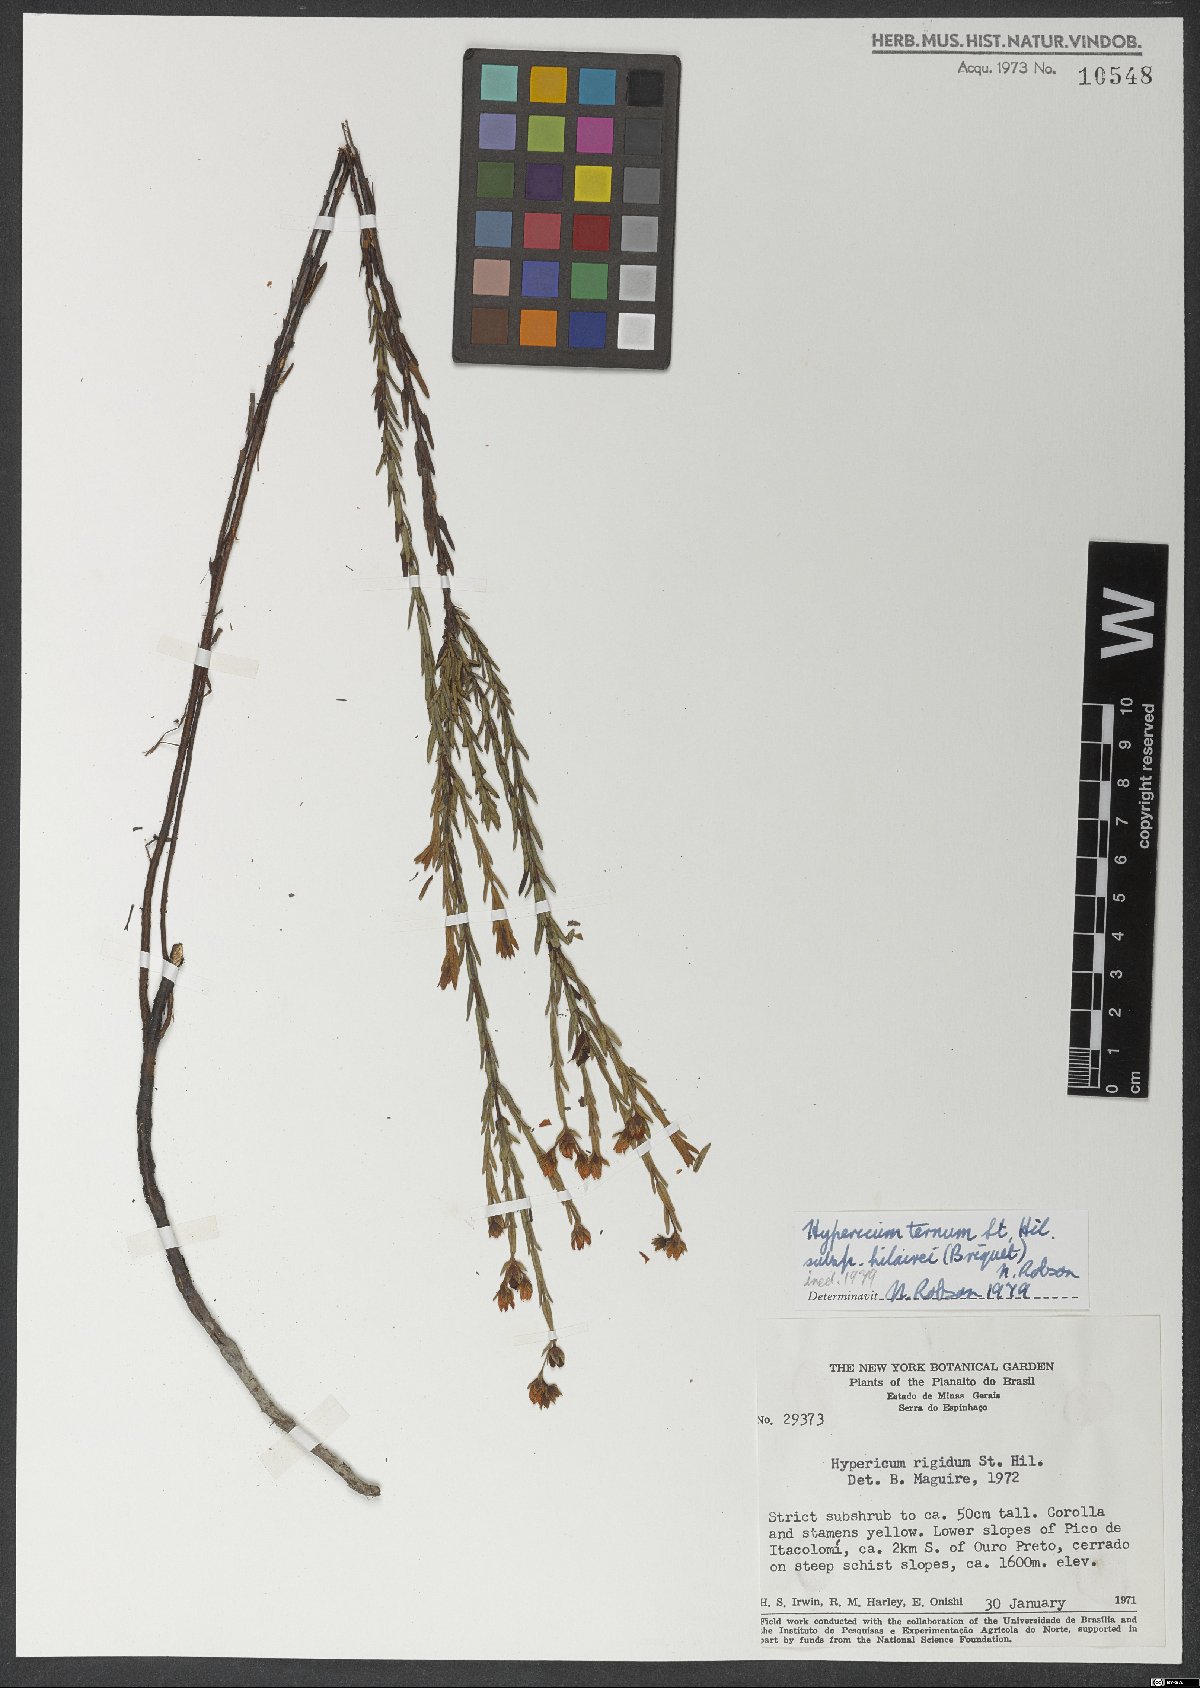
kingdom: Plantae
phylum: Tracheophyta
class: Magnoliopsida
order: Malpighiales
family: Hypericaceae
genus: Hypericum
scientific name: Hypericum ternum
